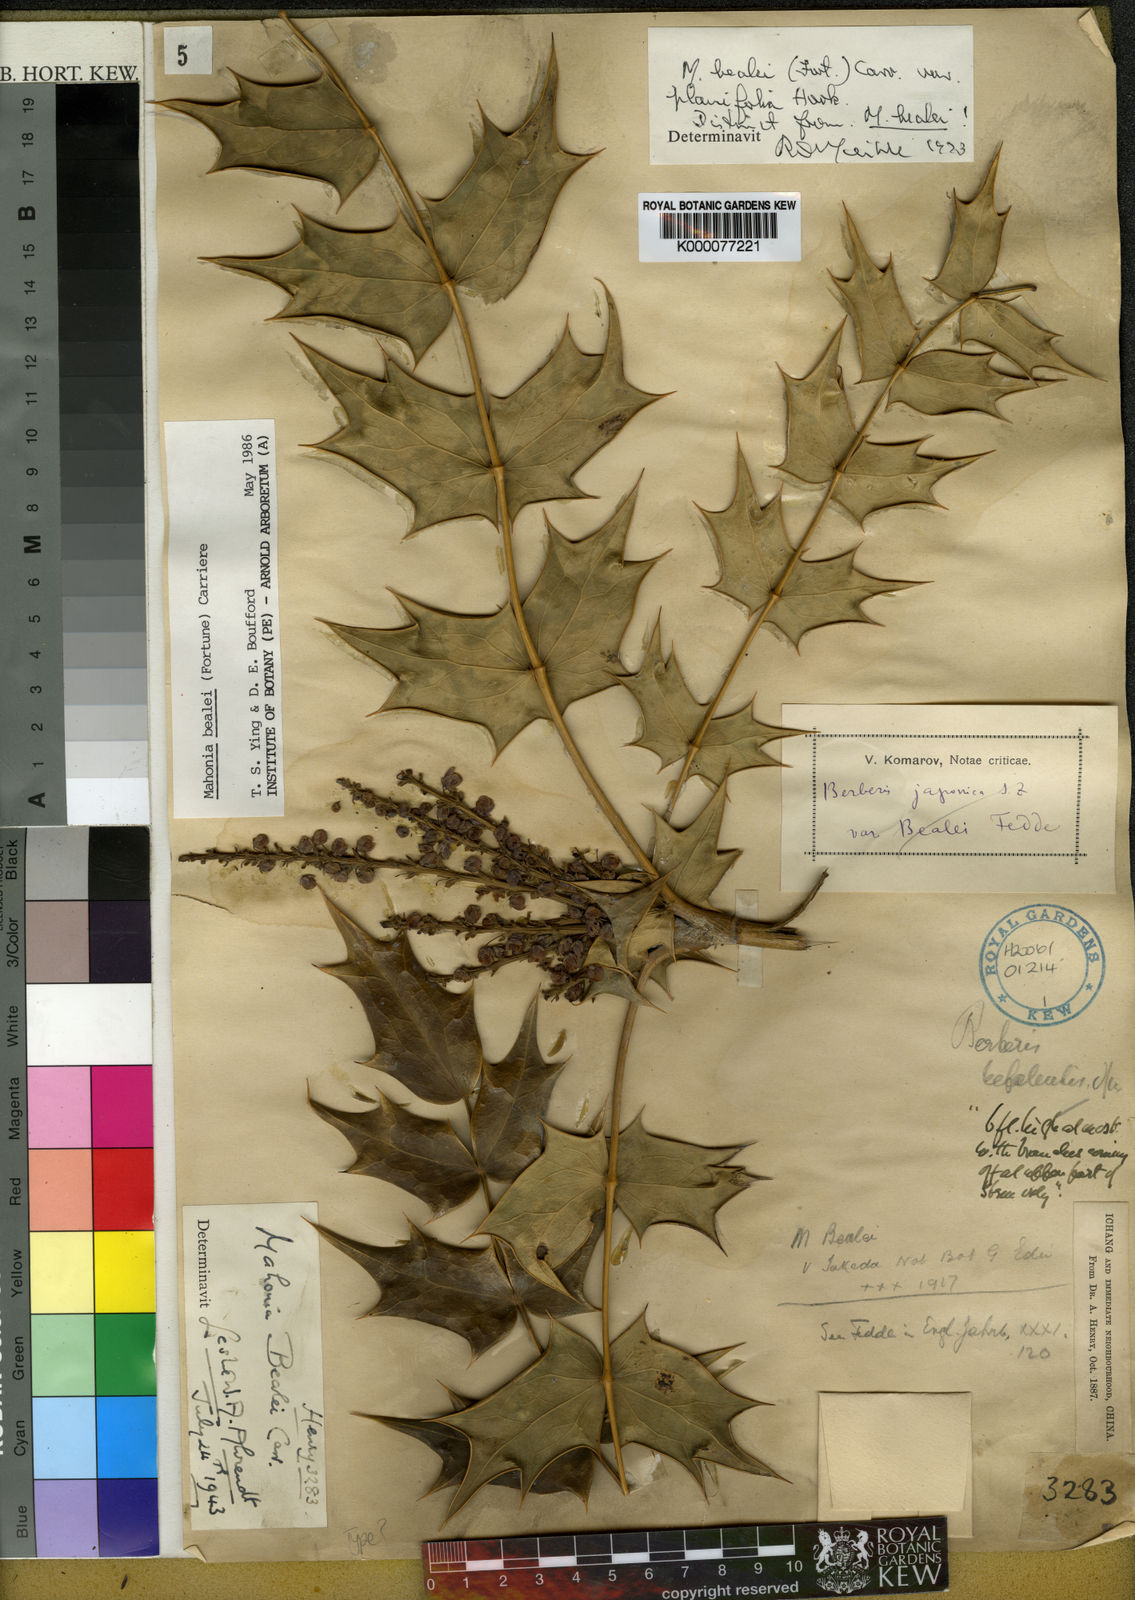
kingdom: Plantae
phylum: Tracheophyta
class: Magnoliopsida
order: Ranunculales
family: Berberidaceae
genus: Mahonia
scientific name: Mahonia bealei
